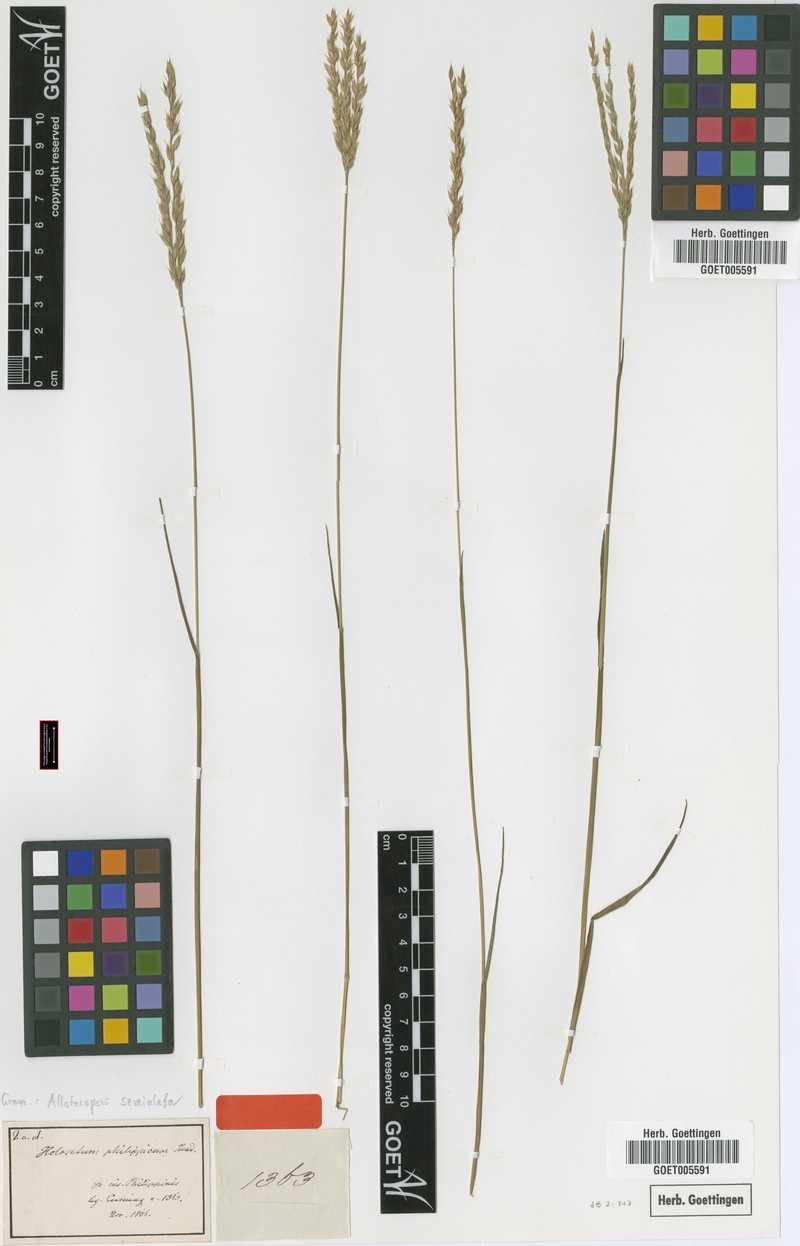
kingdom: Plantae
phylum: Tracheophyta
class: Liliopsida
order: Poales
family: Poaceae
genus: Alloteropsis
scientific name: Alloteropsis semialata
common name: Cockatoo grass
